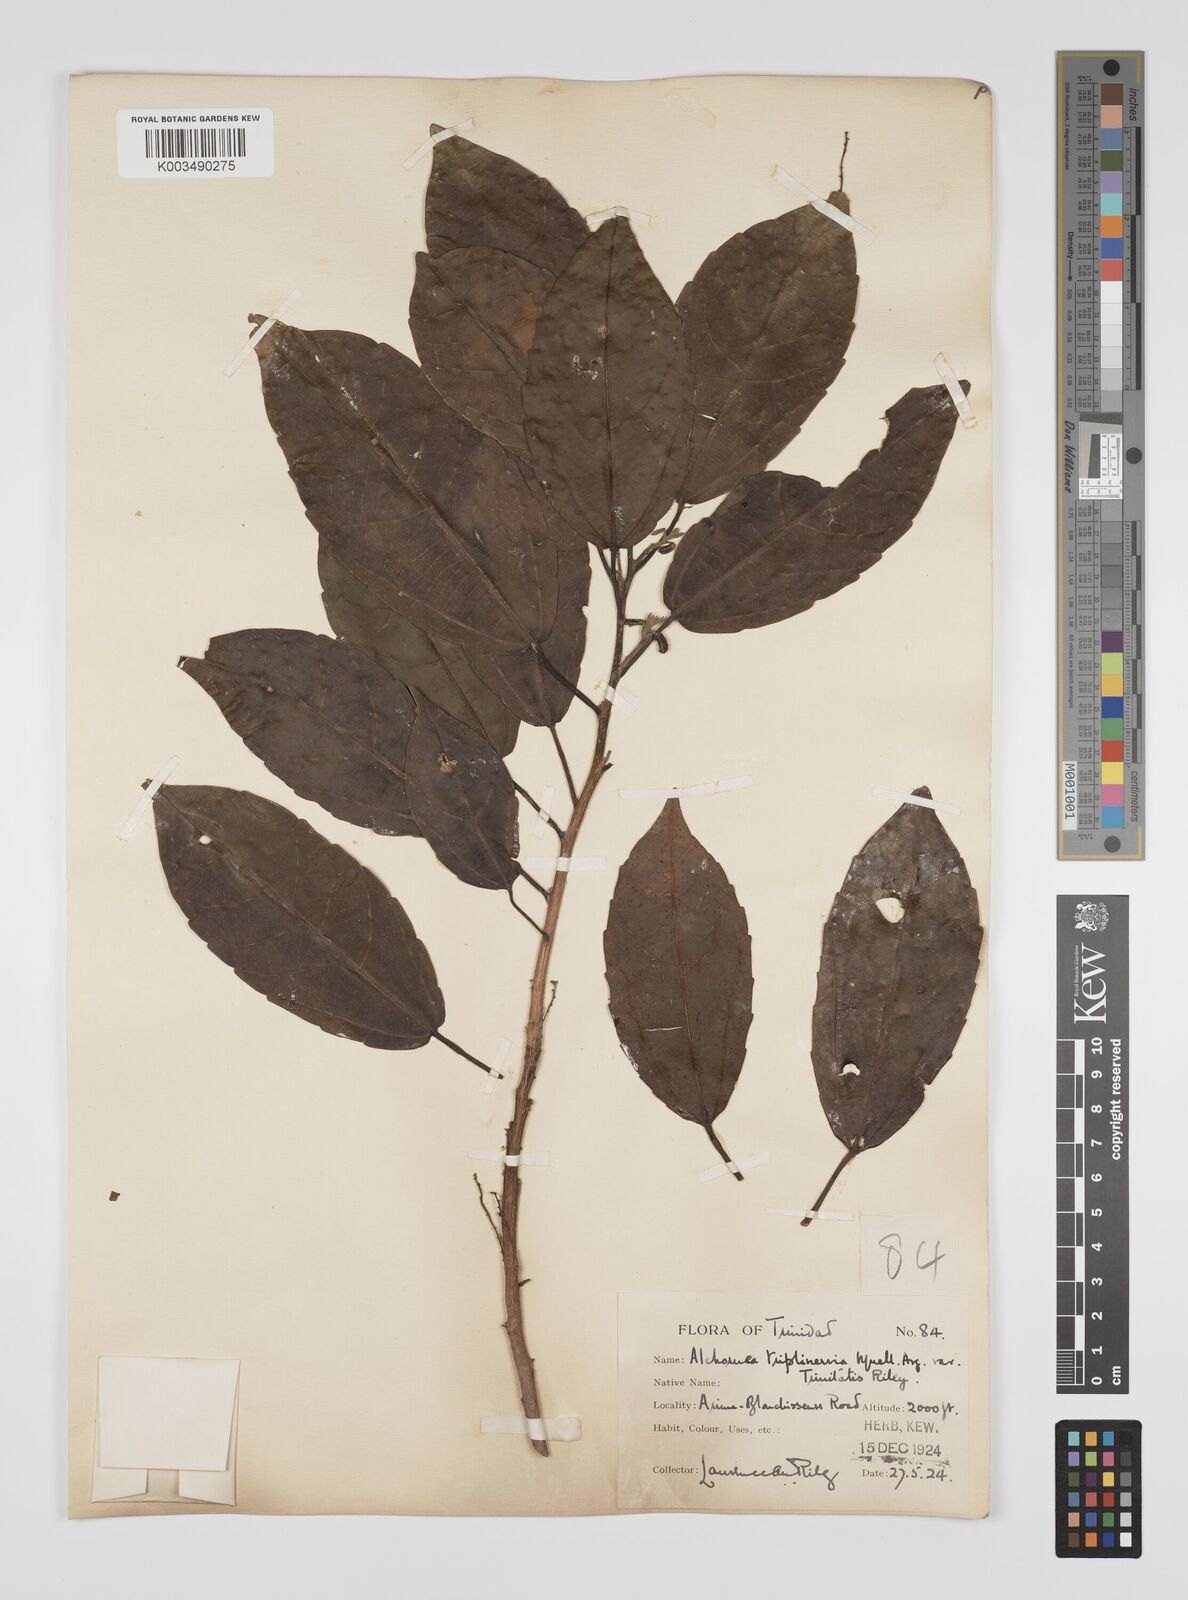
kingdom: Plantae
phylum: Tracheophyta
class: Magnoliopsida
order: Malpighiales
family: Euphorbiaceae
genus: Alchornea
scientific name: Alchornea triplinervia
